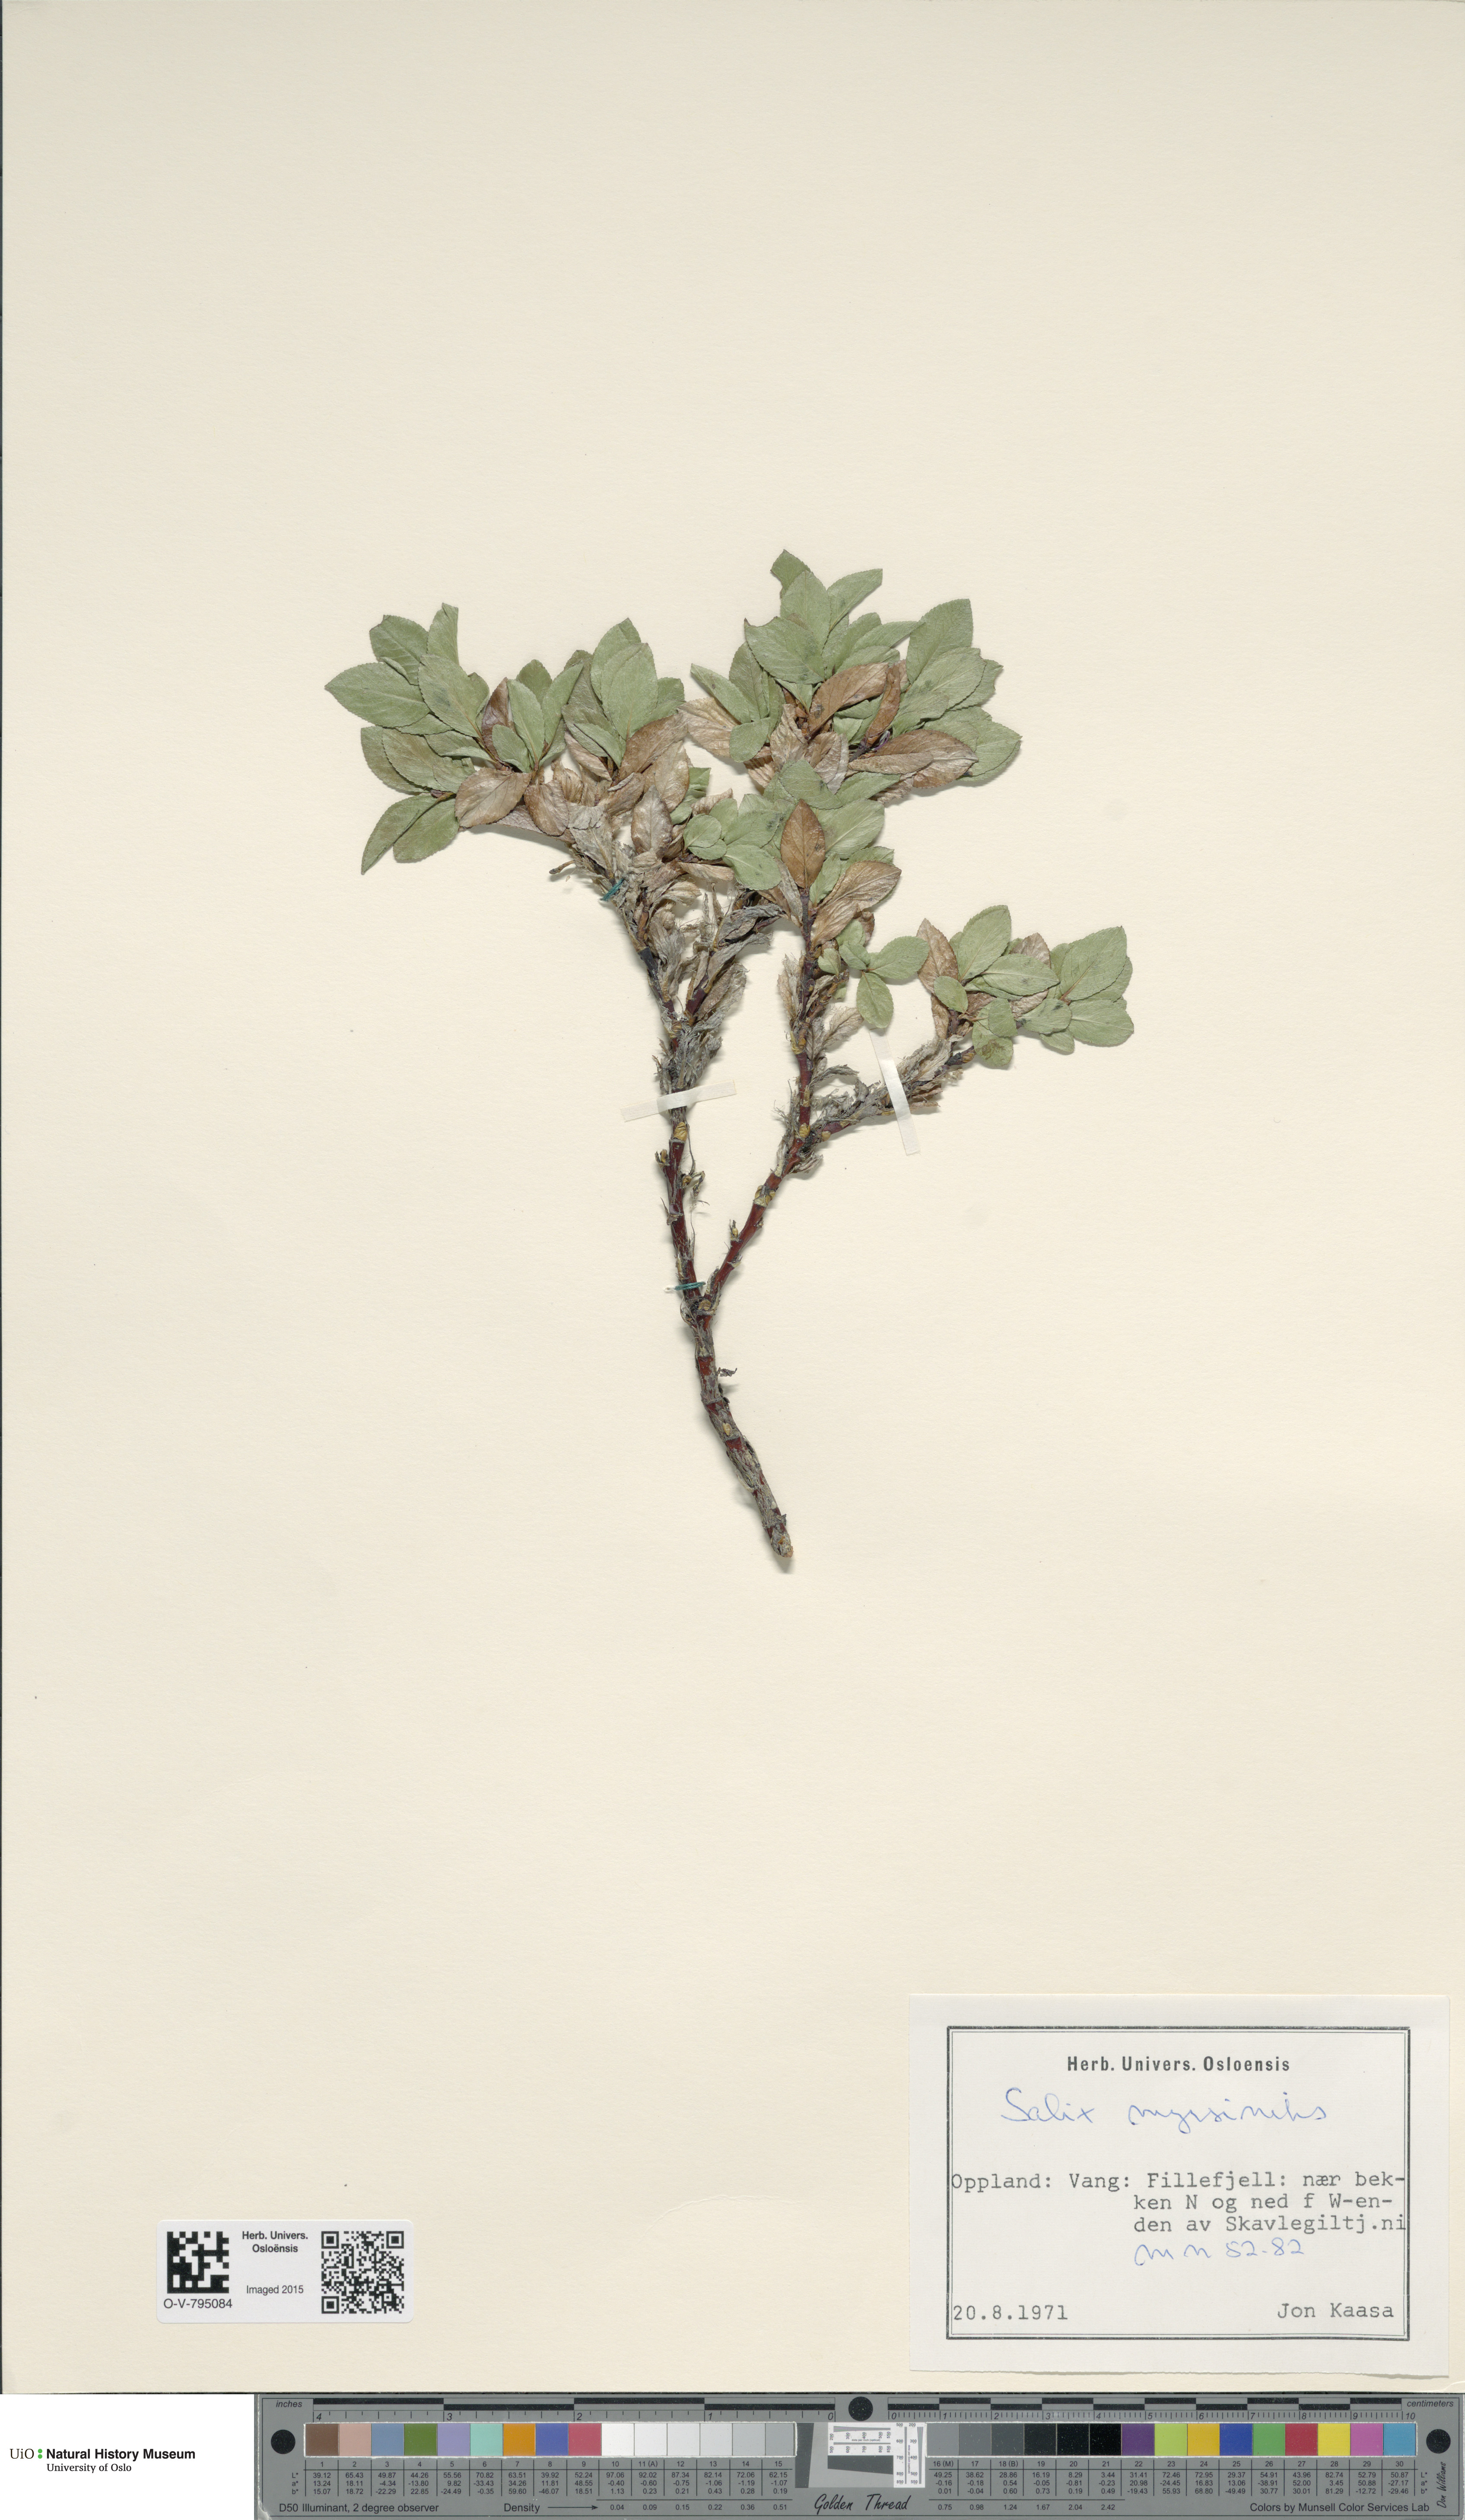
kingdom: Plantae
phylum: Tracheophyta
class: Magnoliopsida
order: Malpighiales
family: Salicaceae
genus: Salix
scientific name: Salix myrsinites
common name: Myrtle willow
